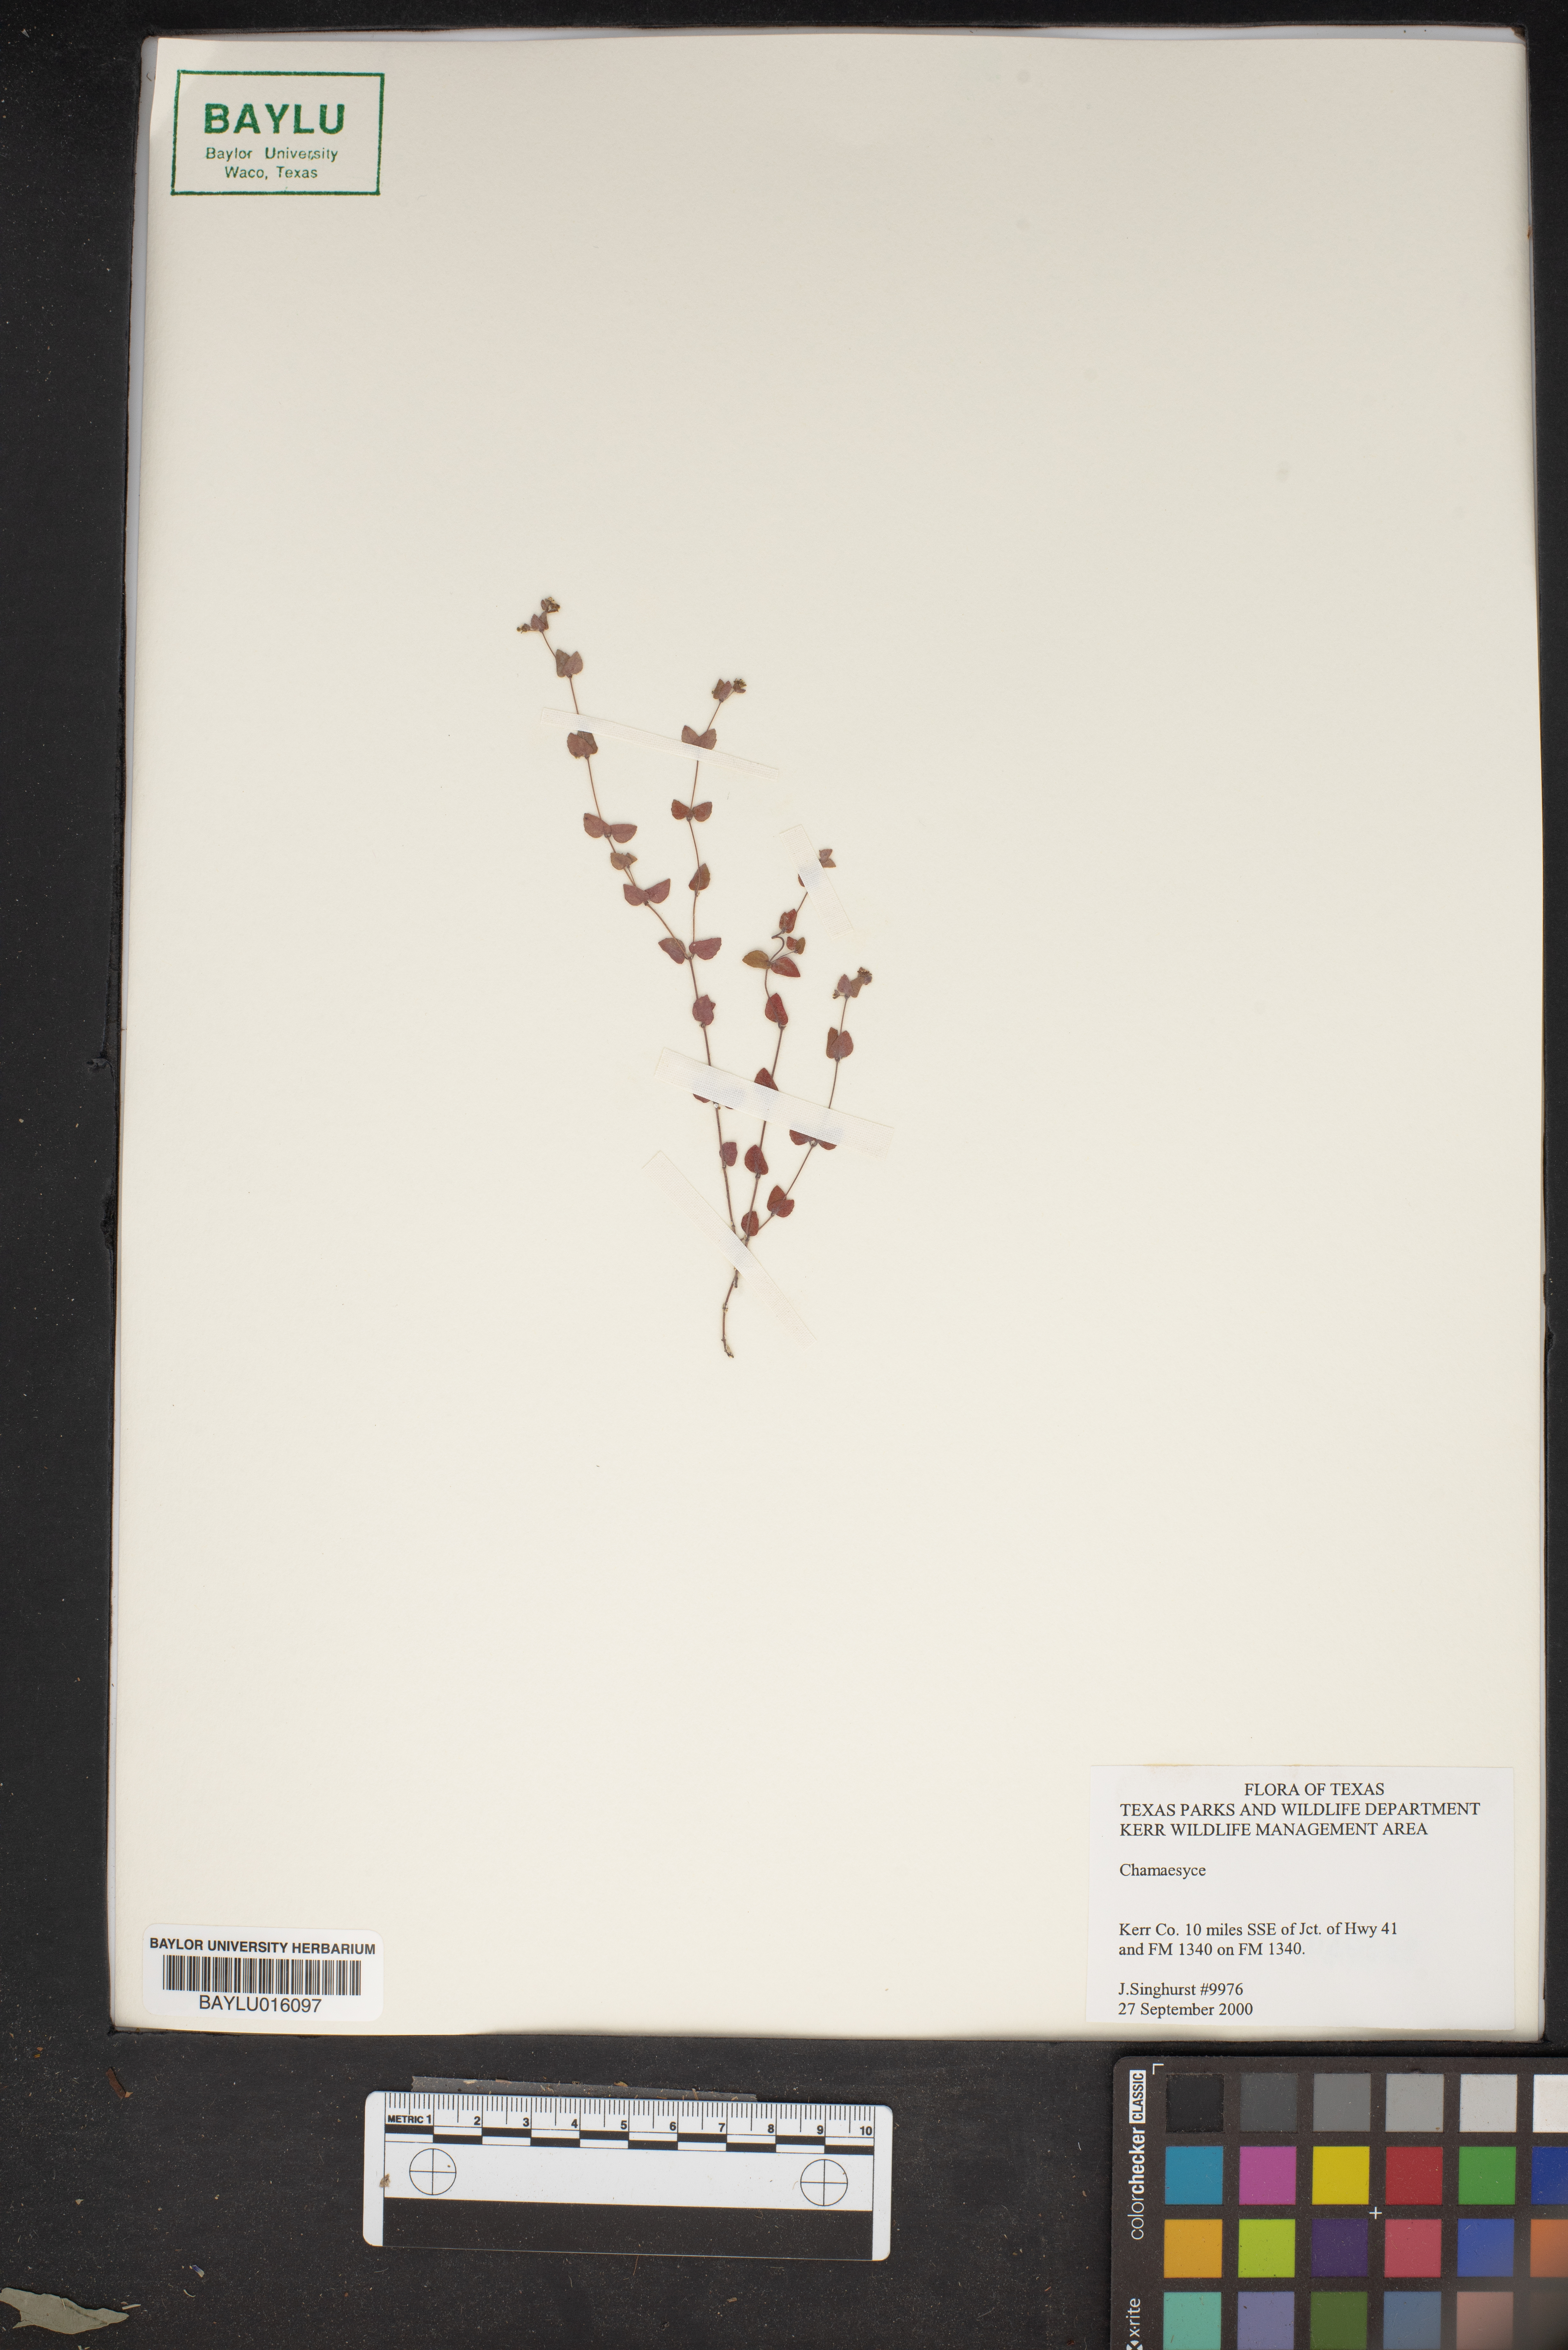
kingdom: Plantae
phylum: Tracheophyta
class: Magnoliopsida
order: Malpighiales
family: Euphorbiaceae
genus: Chamaesyce
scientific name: Chamaesyce
